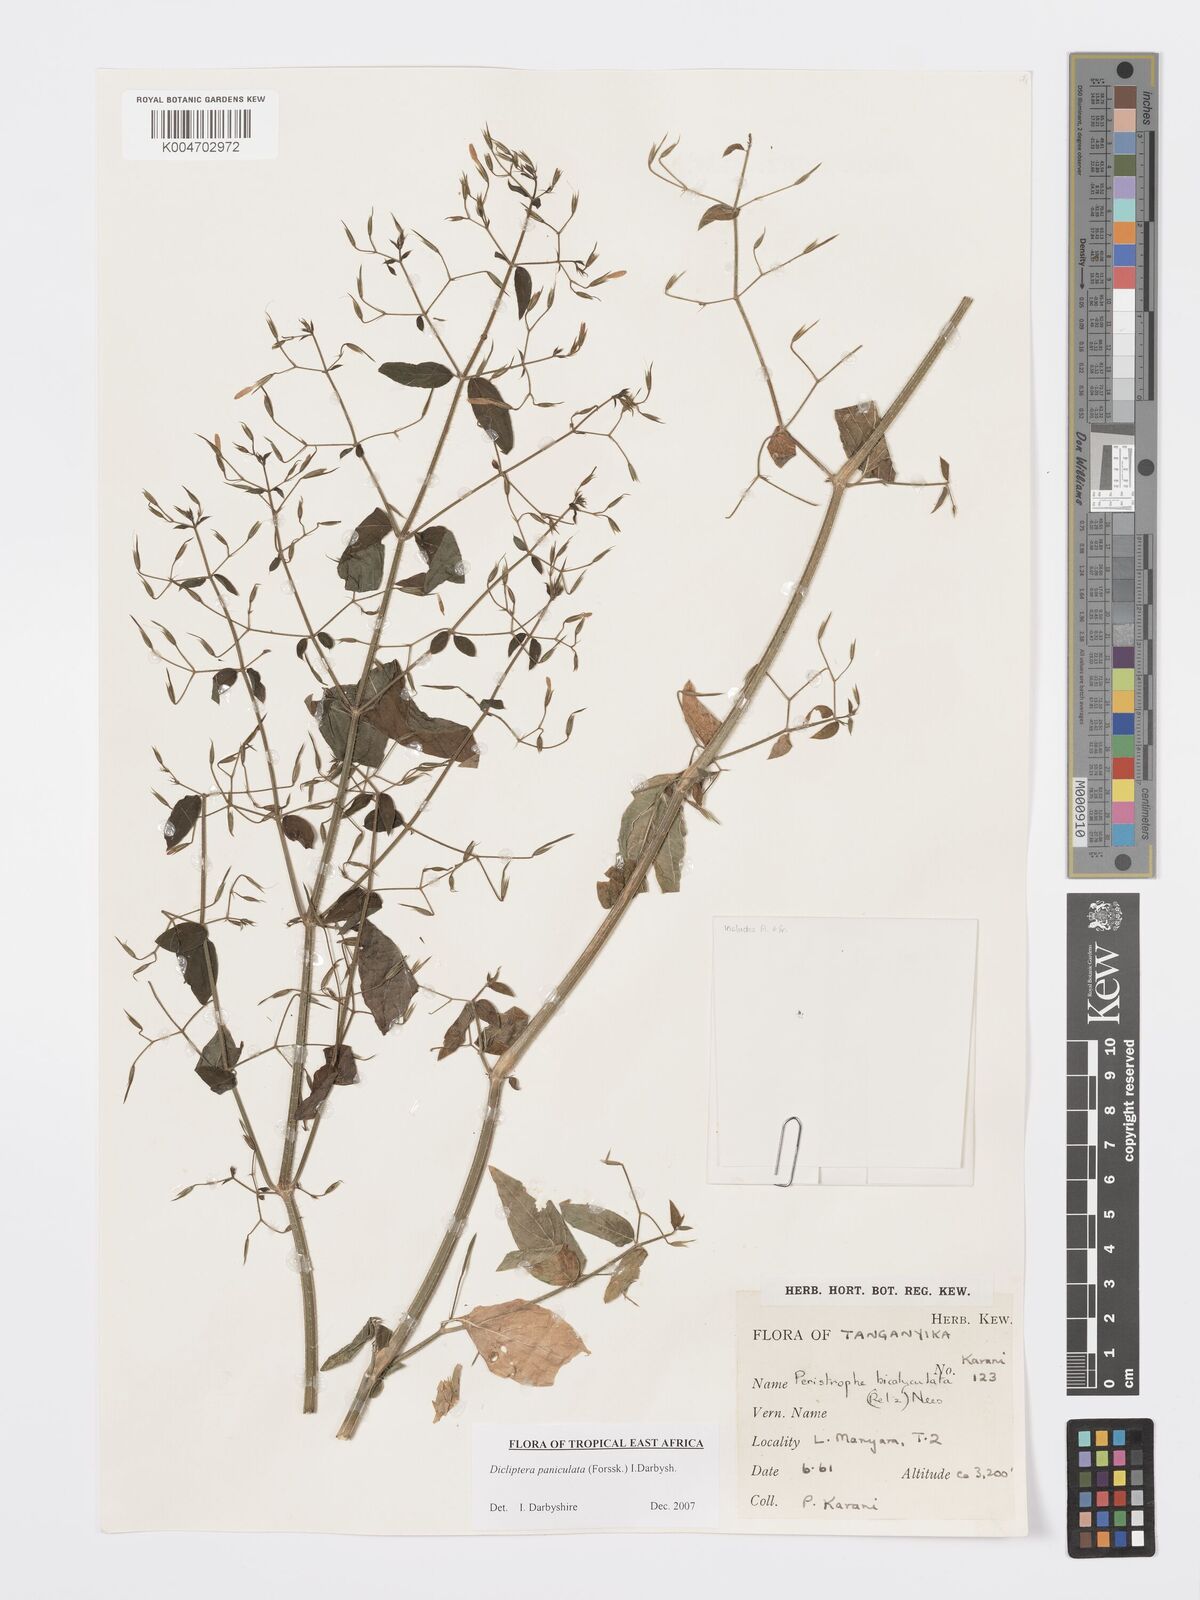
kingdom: Plantae
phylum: Tracheophyta
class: Magnoliopsida
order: Lamiales
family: Acanthaceae
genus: Dicliptera
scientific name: Dicliptera paniculata
